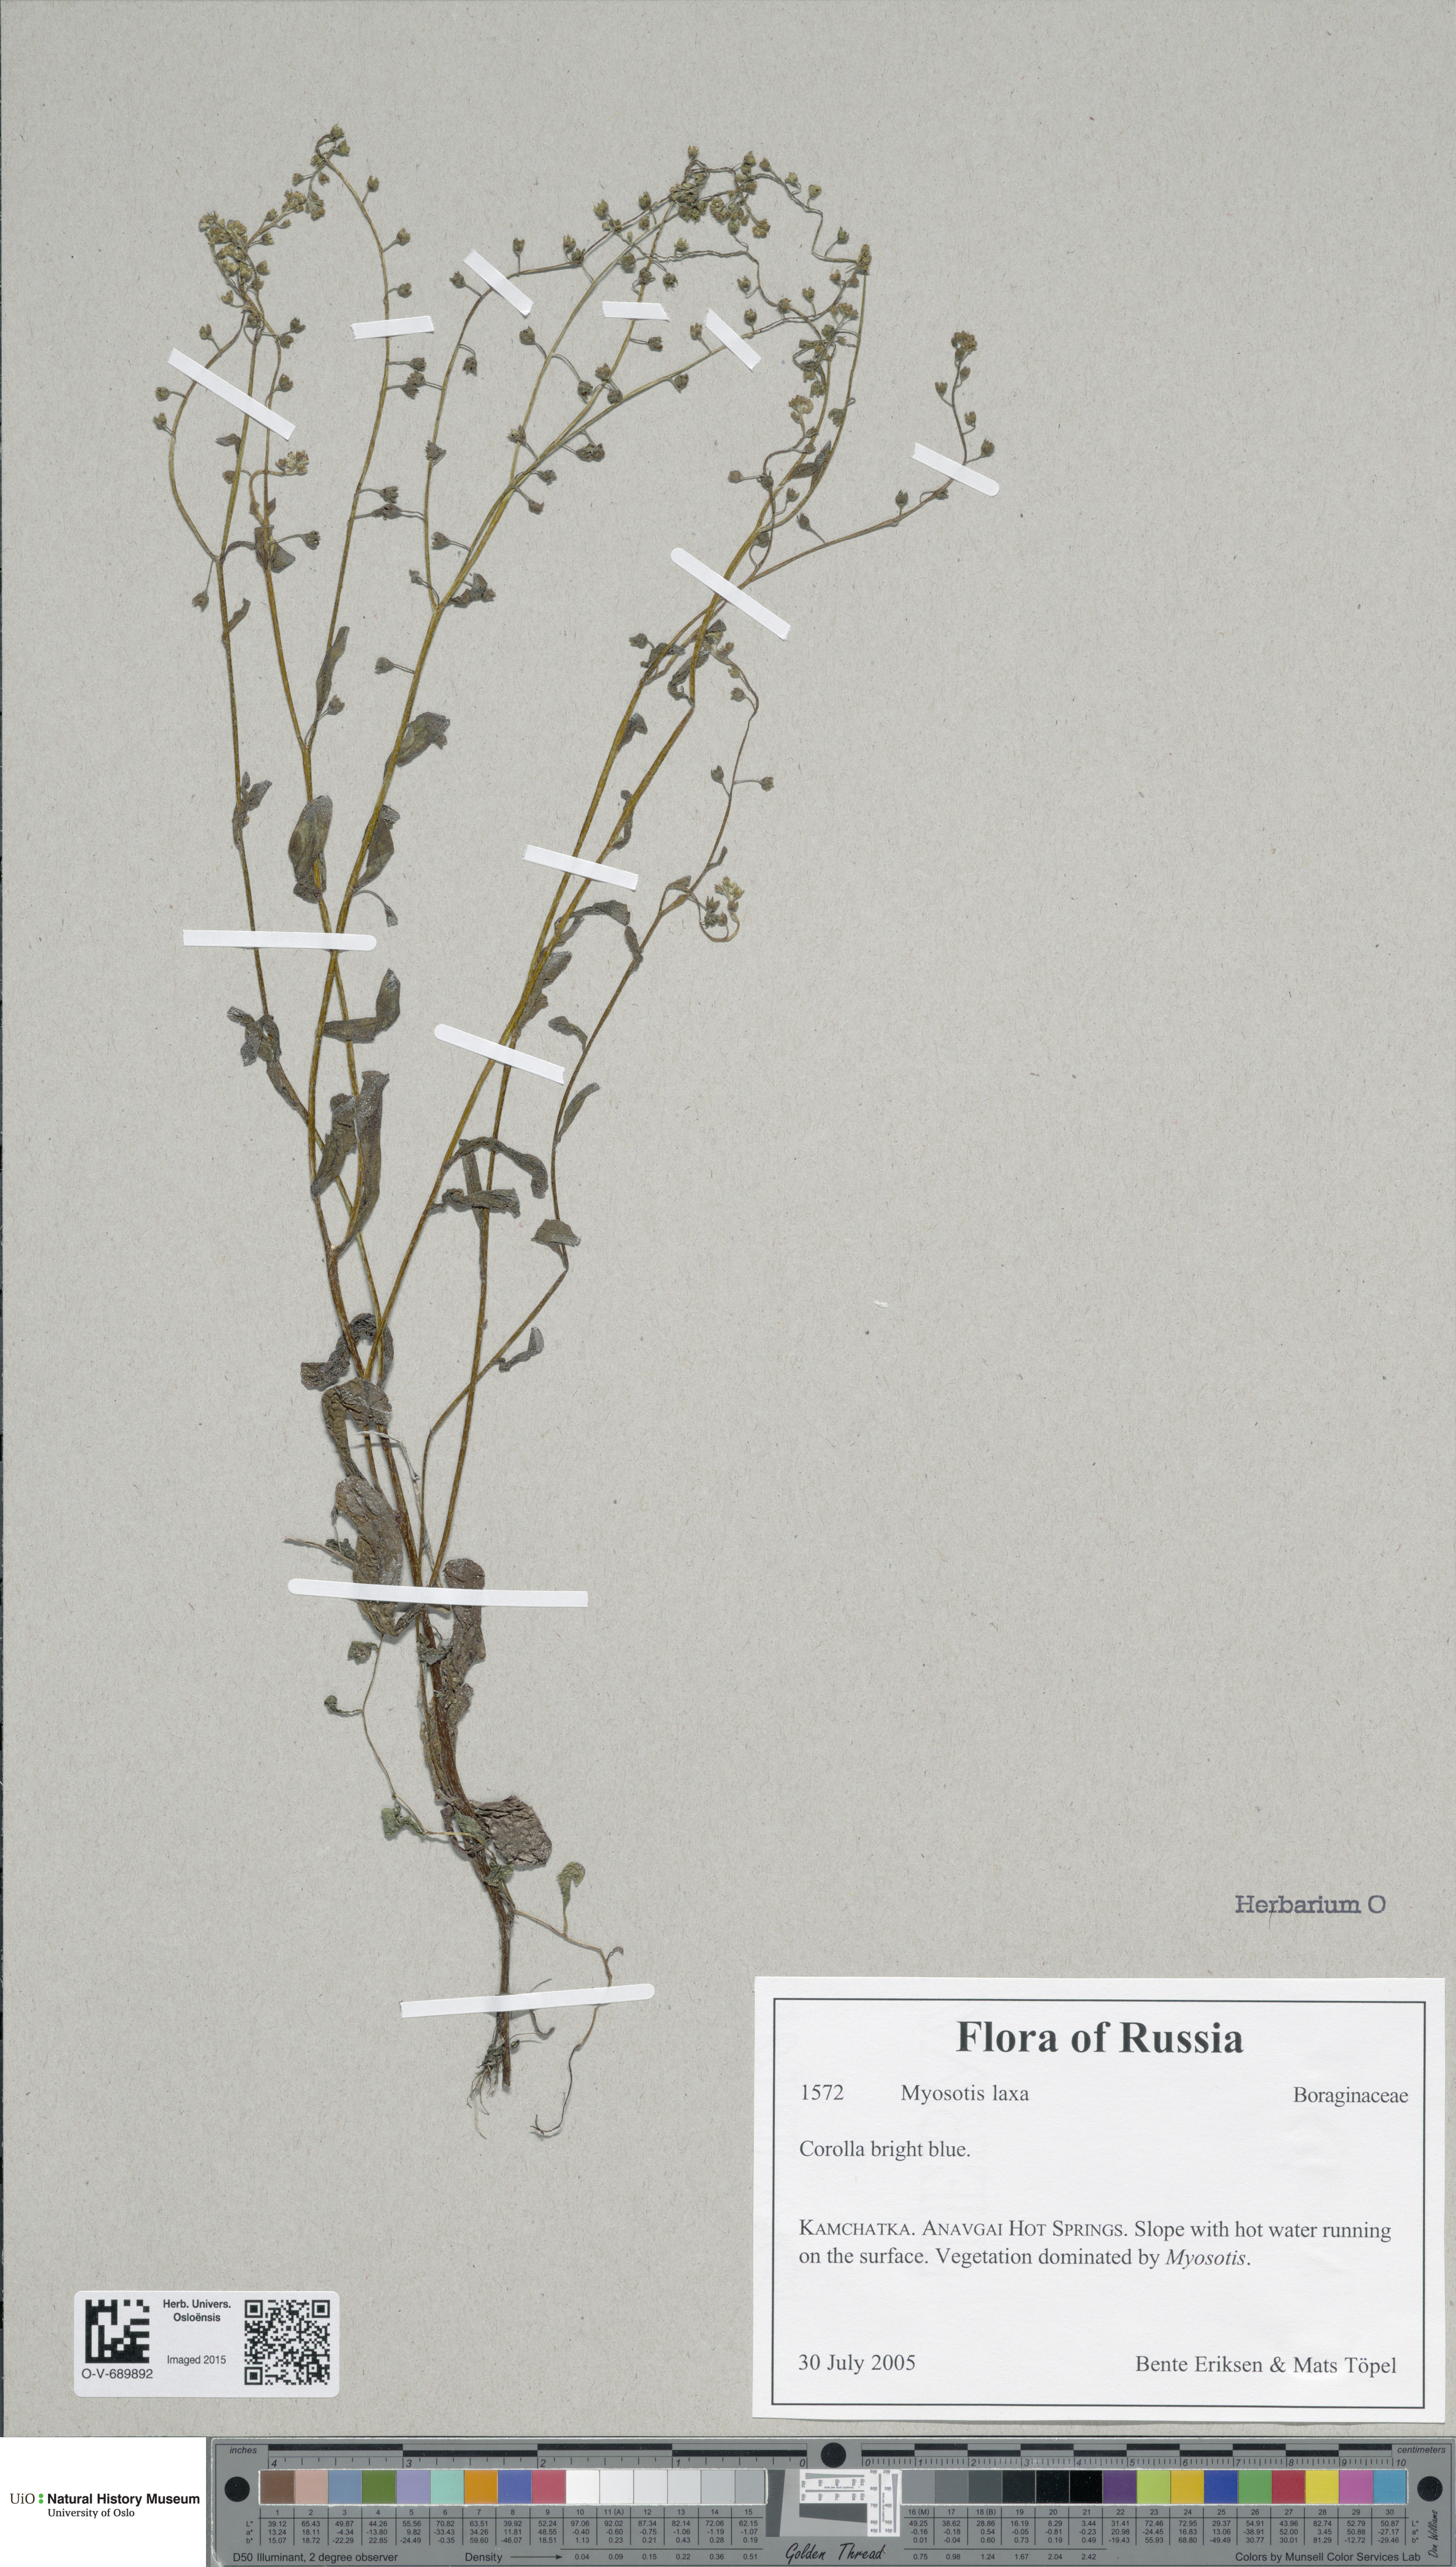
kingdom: Plantae
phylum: Tracheophyta
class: Magnoliopsida
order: Boraginales
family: Boraginaceae
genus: Myosotis
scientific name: Myosotis laxa
